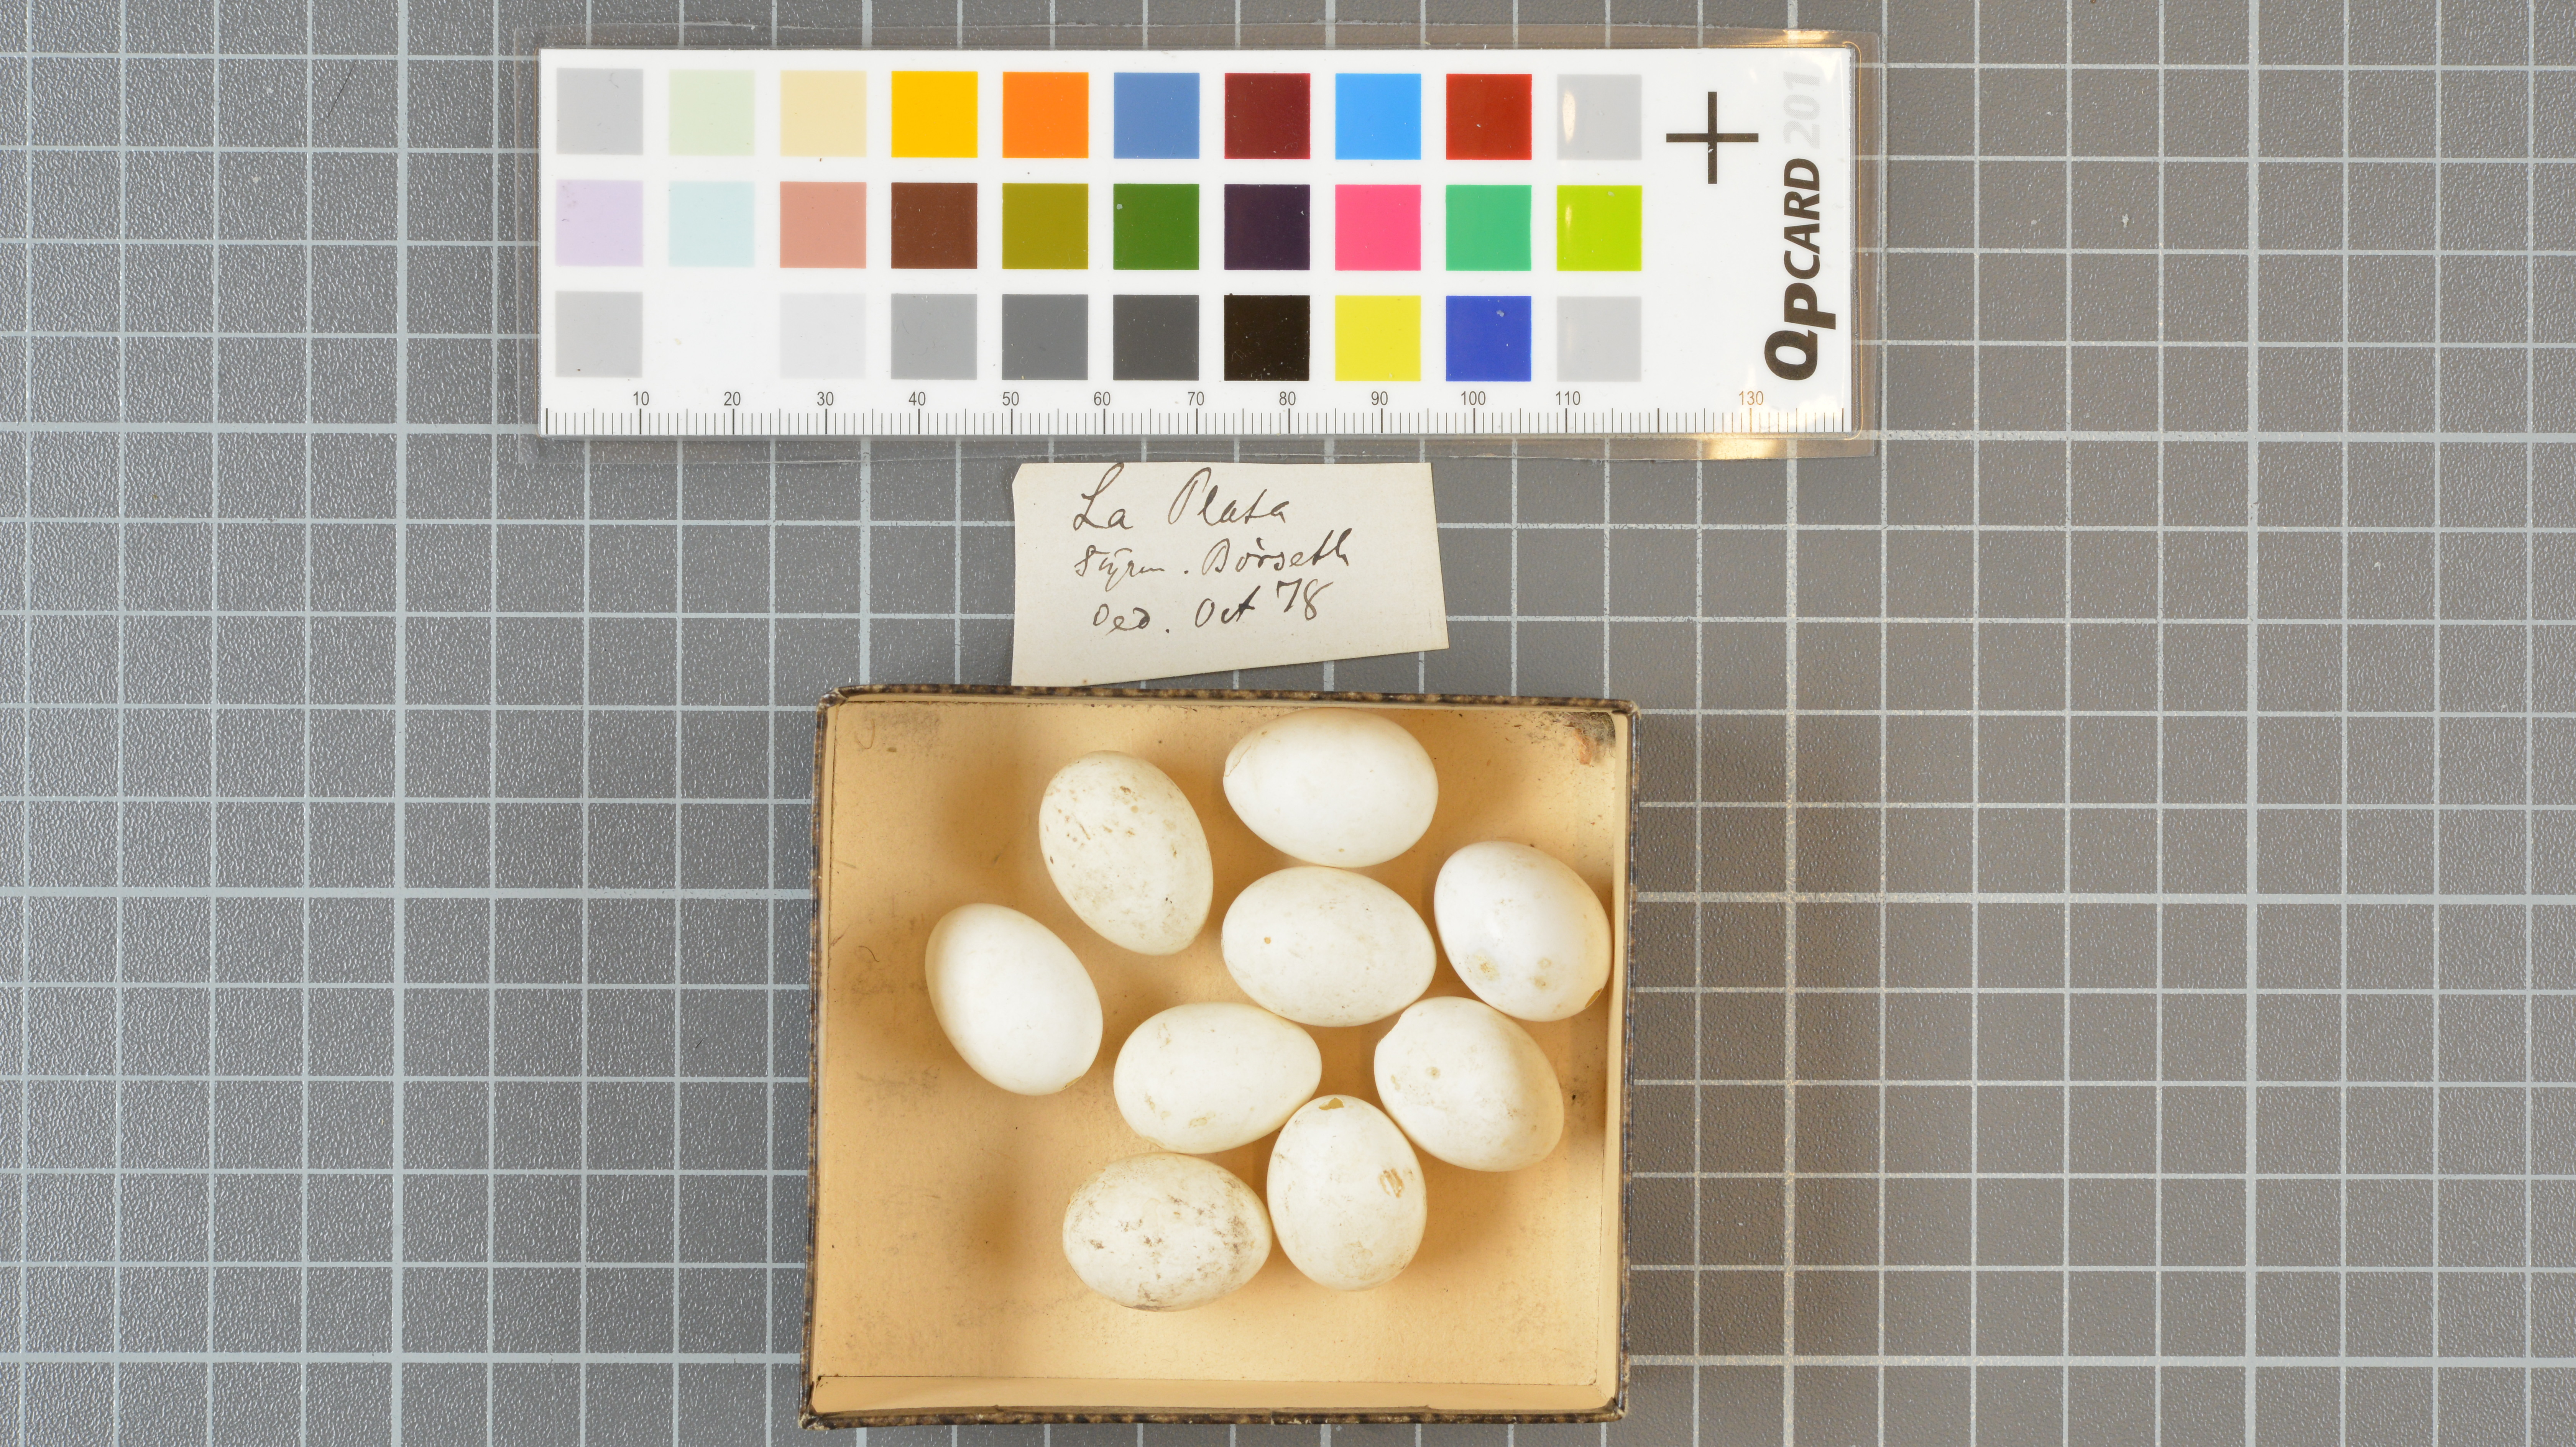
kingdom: Animalia
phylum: Chordata
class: Aves
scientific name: Aves
